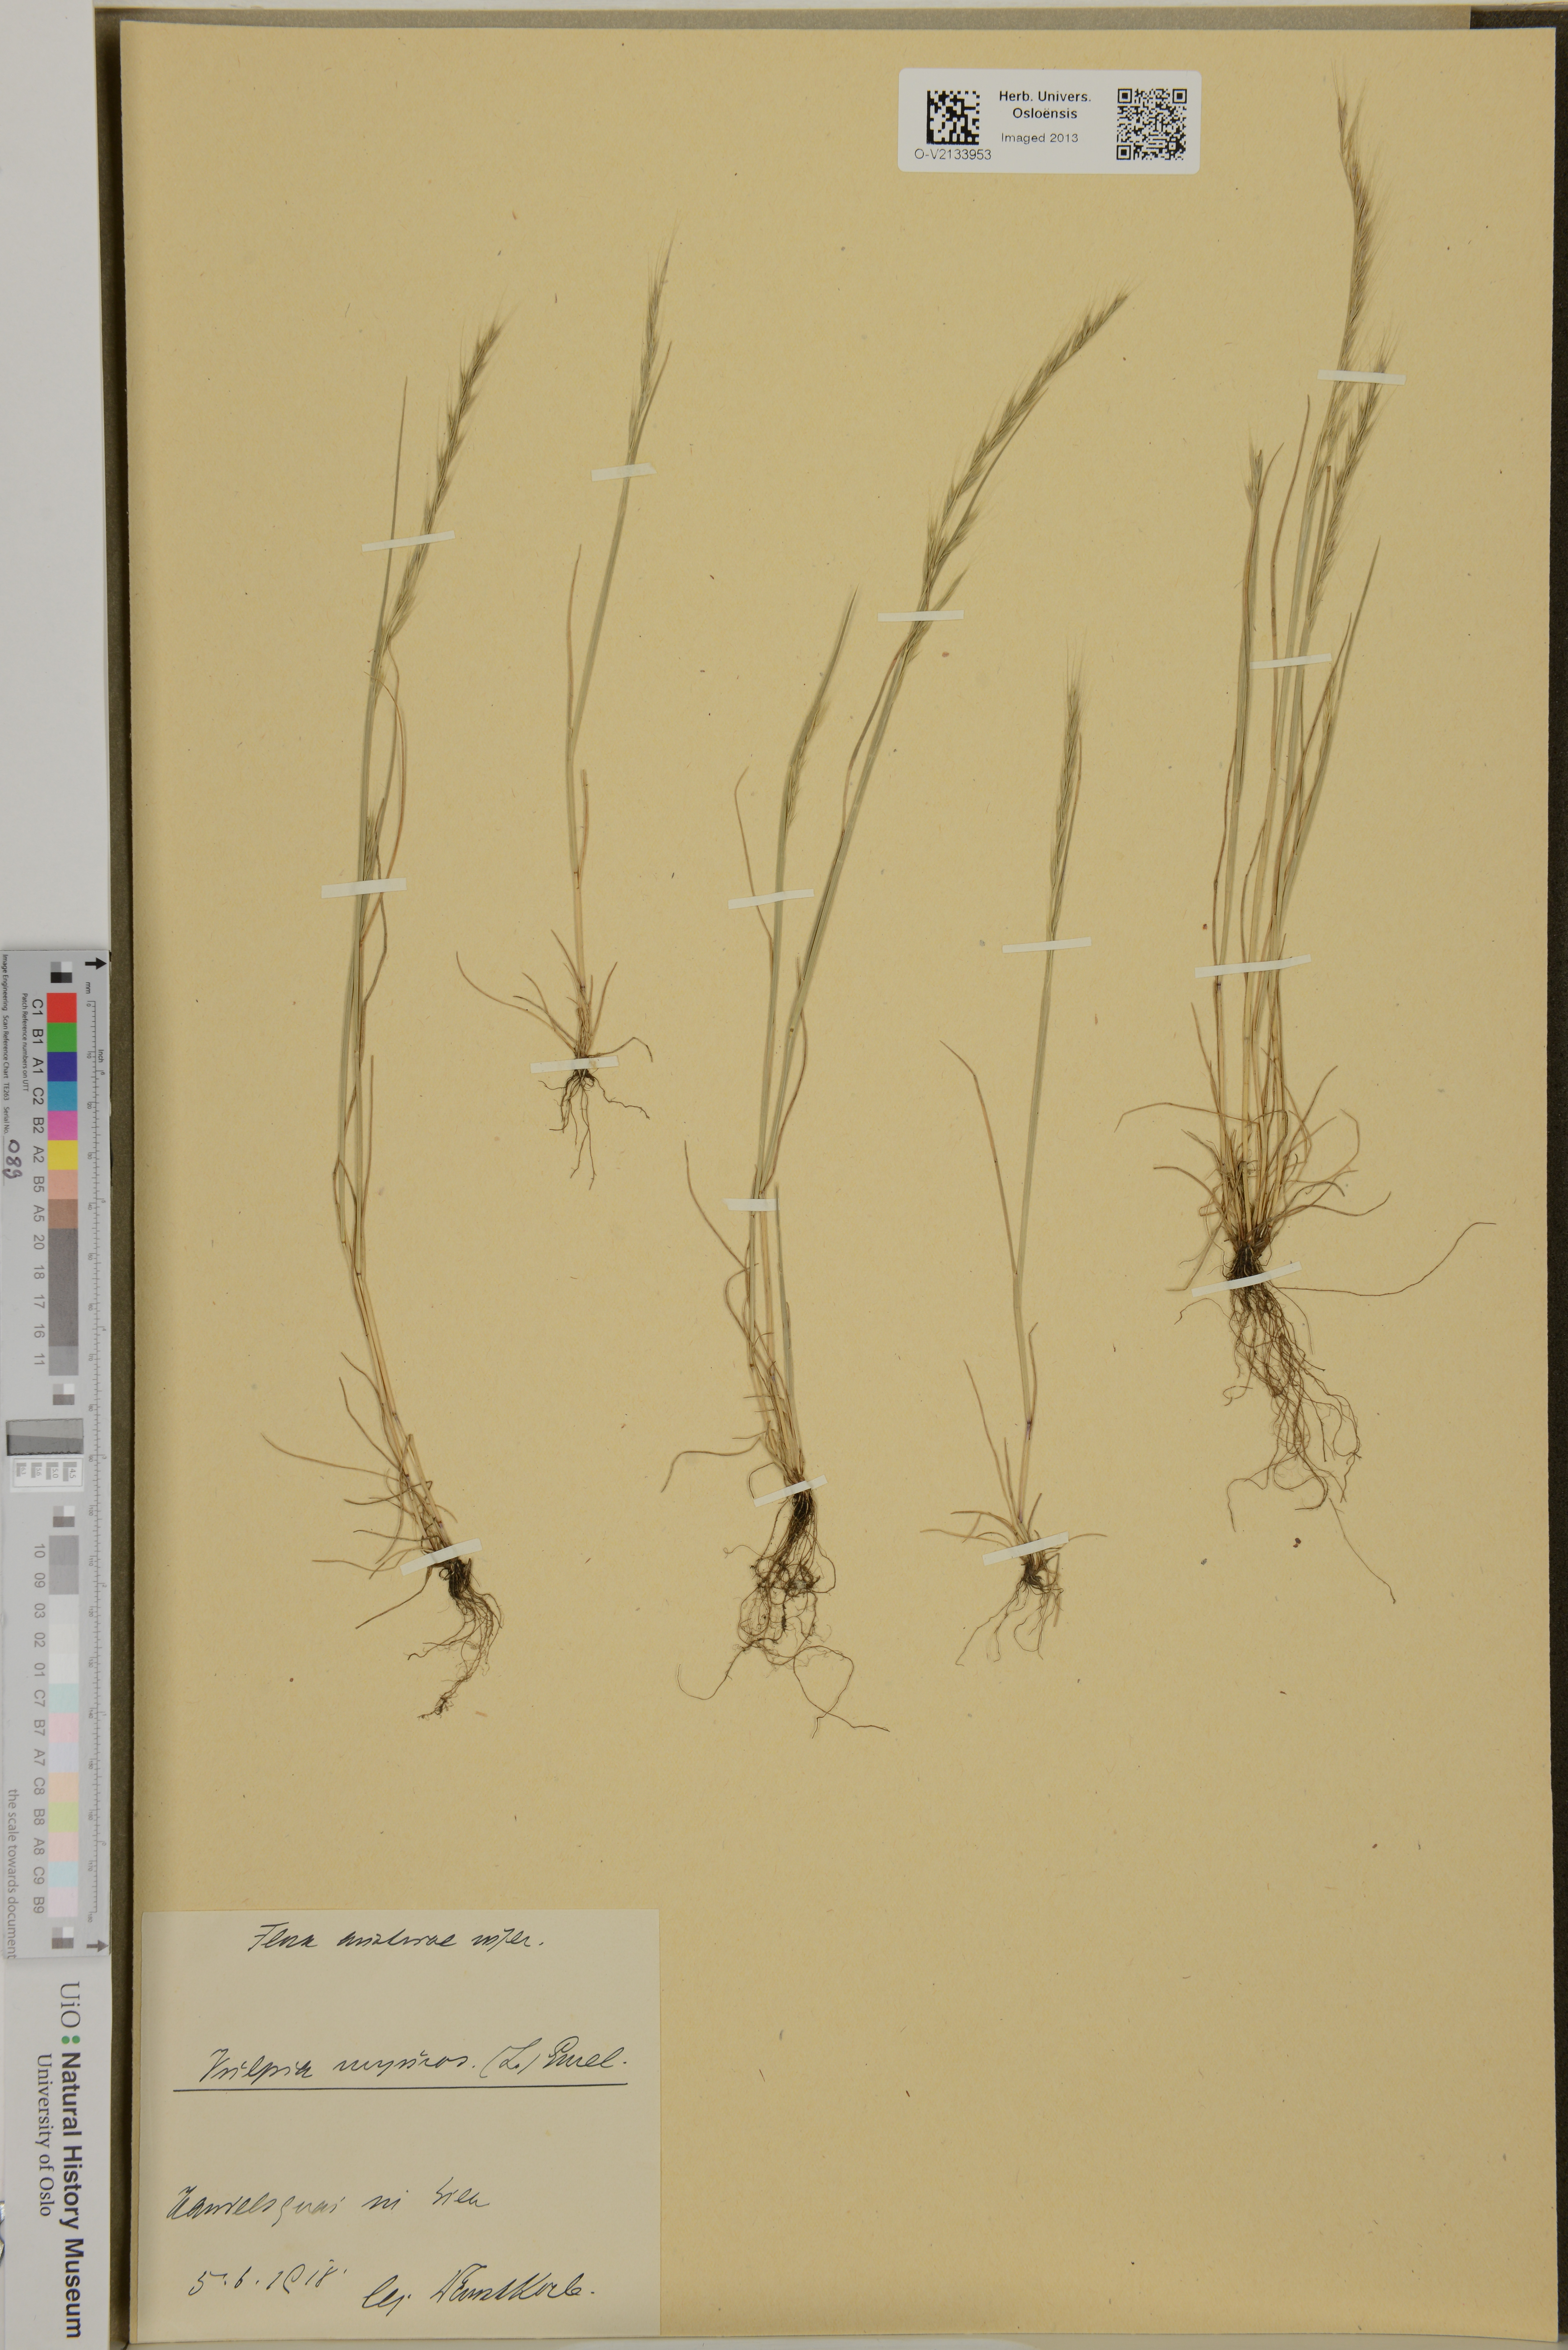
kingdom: Plantae
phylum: Tracheophyta
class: Liliopsida
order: Poales
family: Poaceae
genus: Festuca
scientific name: Festuca myuros
